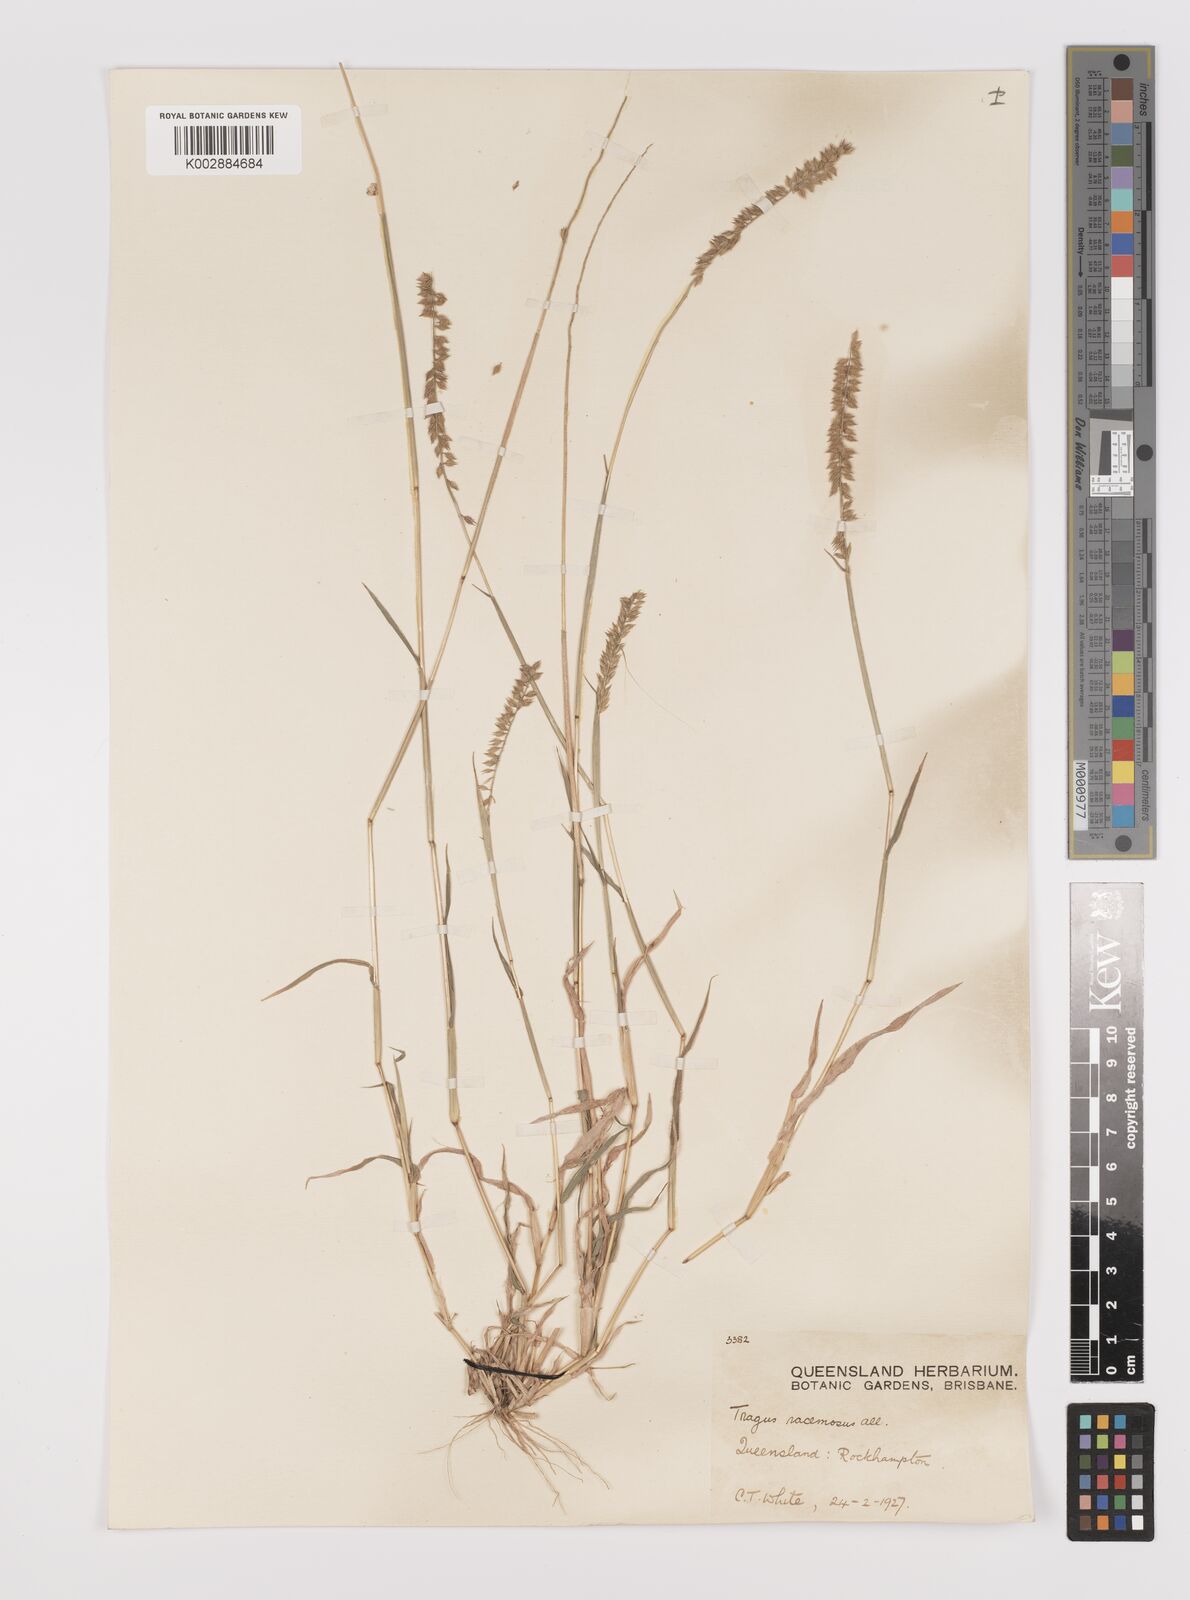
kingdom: Plantae
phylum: Tracheophyta
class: Liliopsida
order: Poales
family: Poaceae
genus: Tragus
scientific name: Tragus australianus
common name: Australian bur-grass
